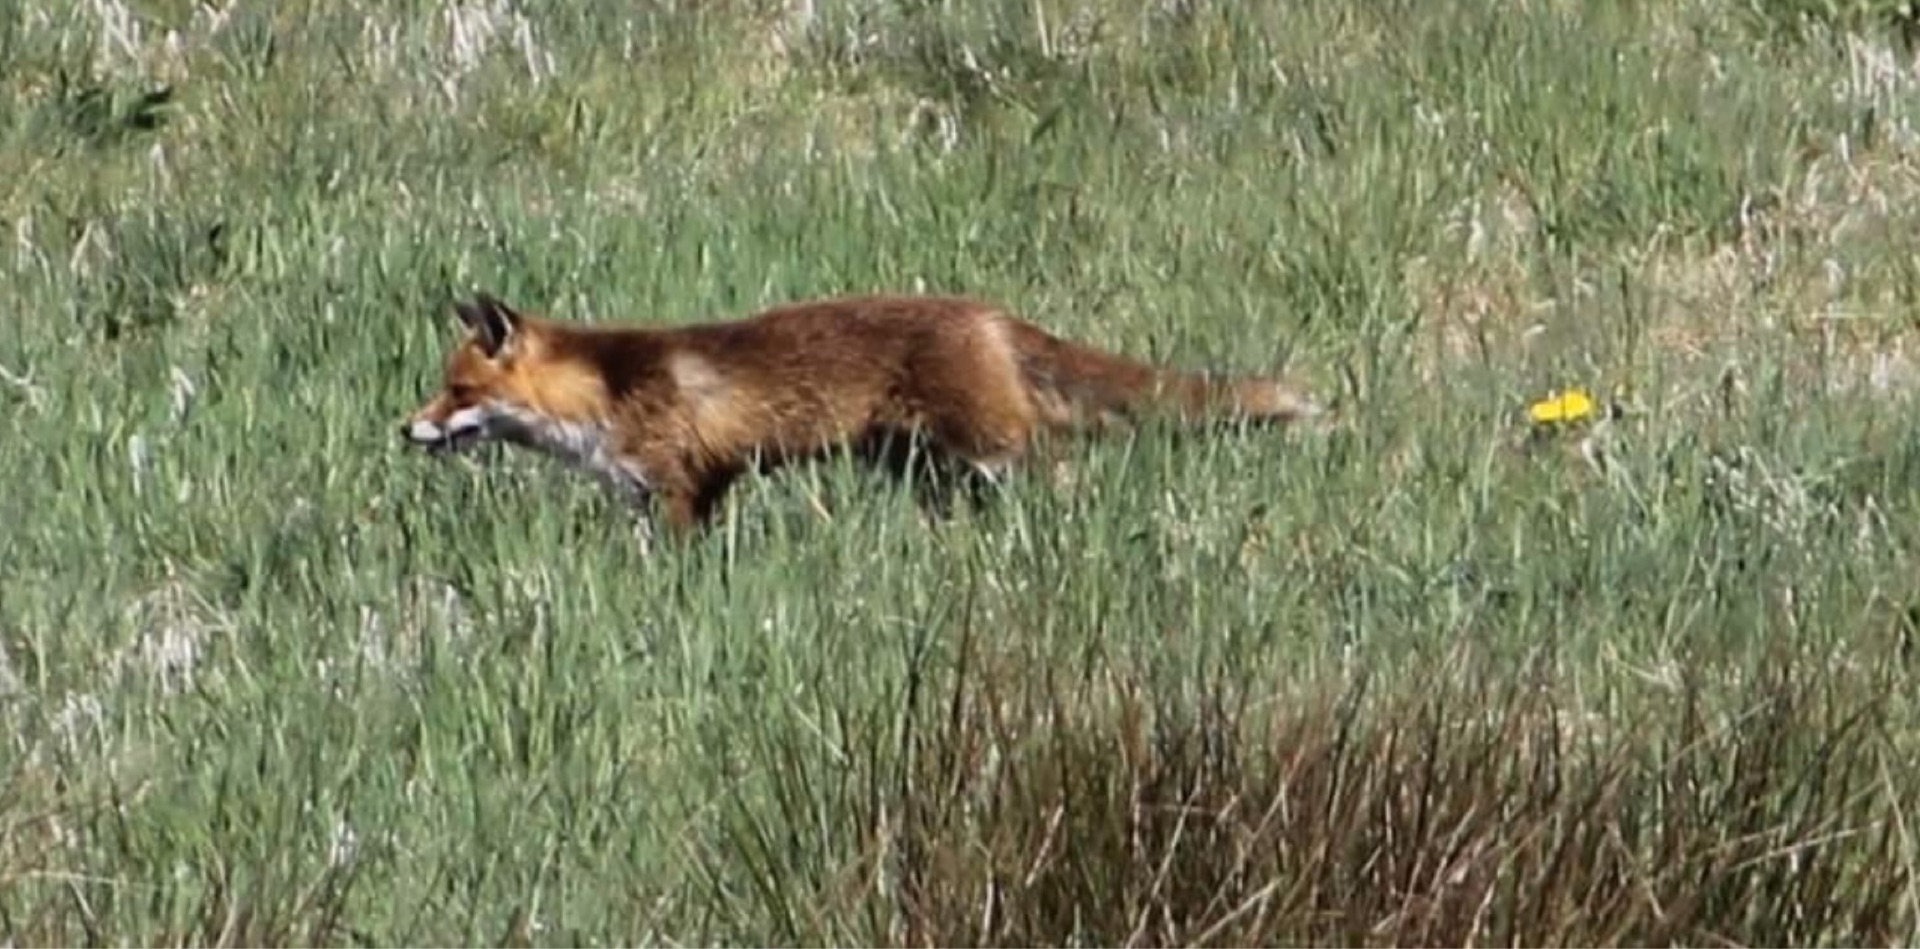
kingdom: Animalia
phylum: Chordata
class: Mammalia
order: Carnivora
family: Canidae
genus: Vulpes
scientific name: Vulpes vulpes
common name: Ræv
